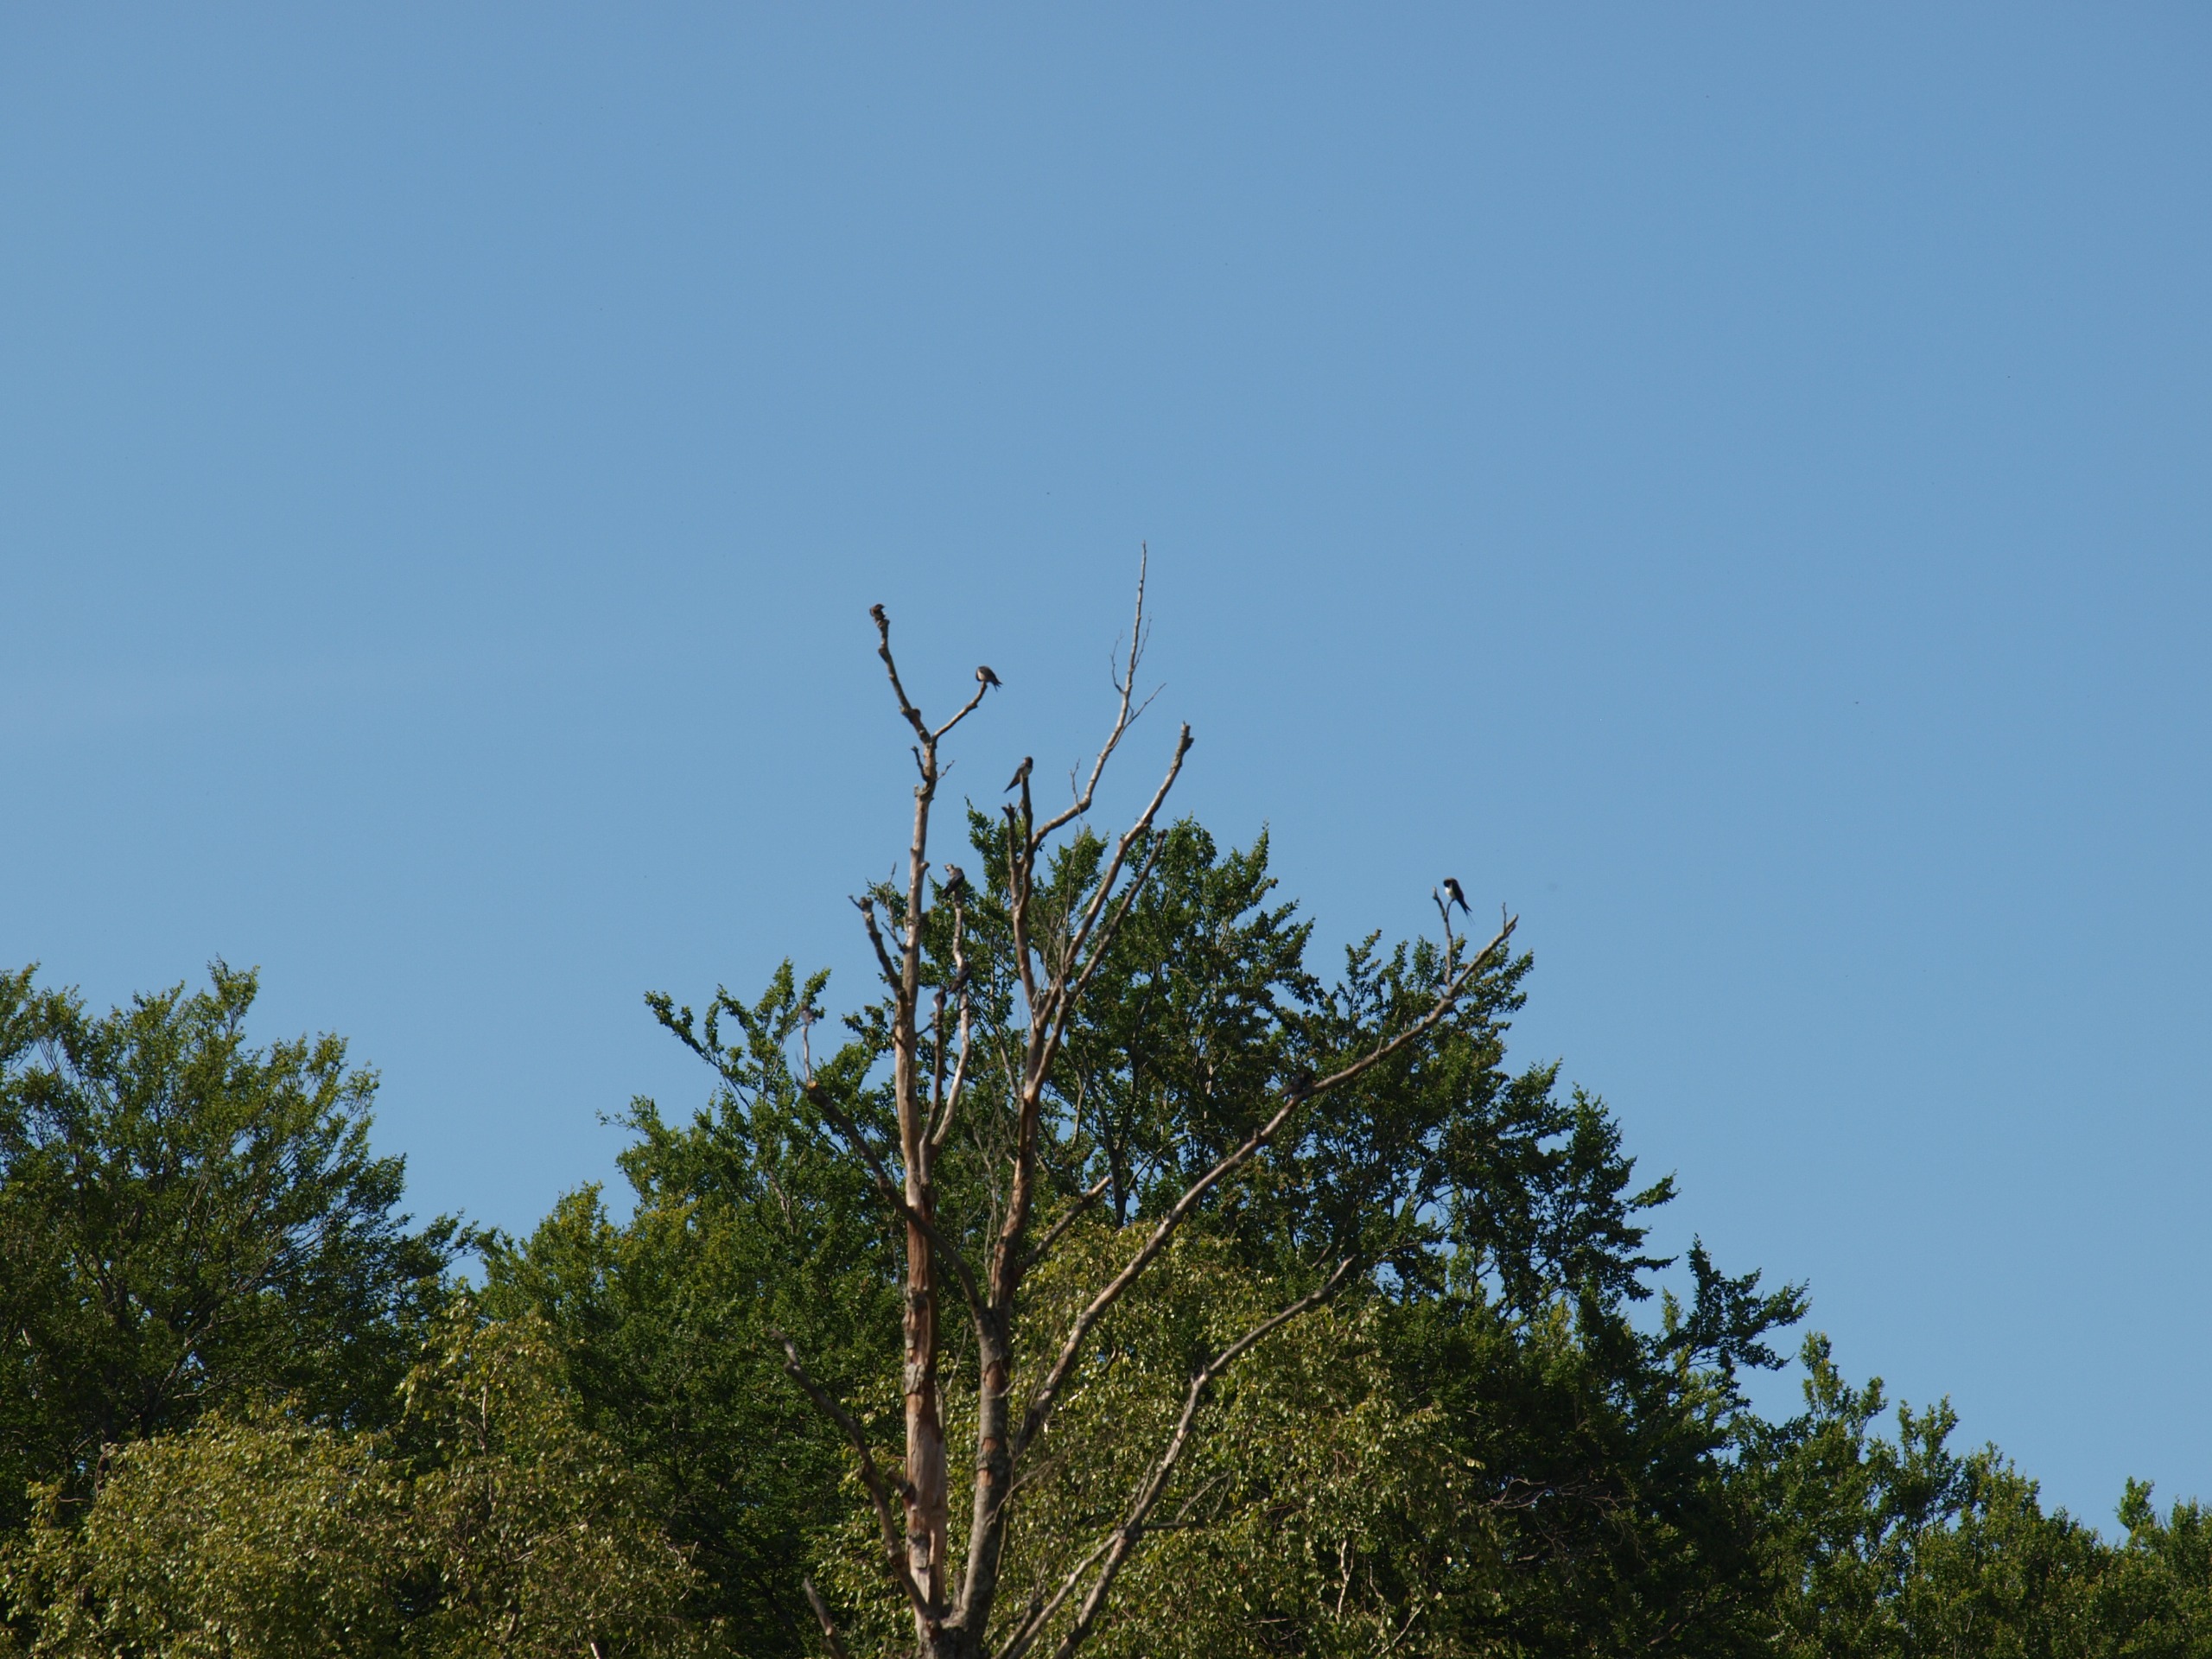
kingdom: Animalia
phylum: Chordata
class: Aves
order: Passeriformes
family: Hirundinidae
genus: Hirundo
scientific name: Hirundo rustica
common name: Landsvale
